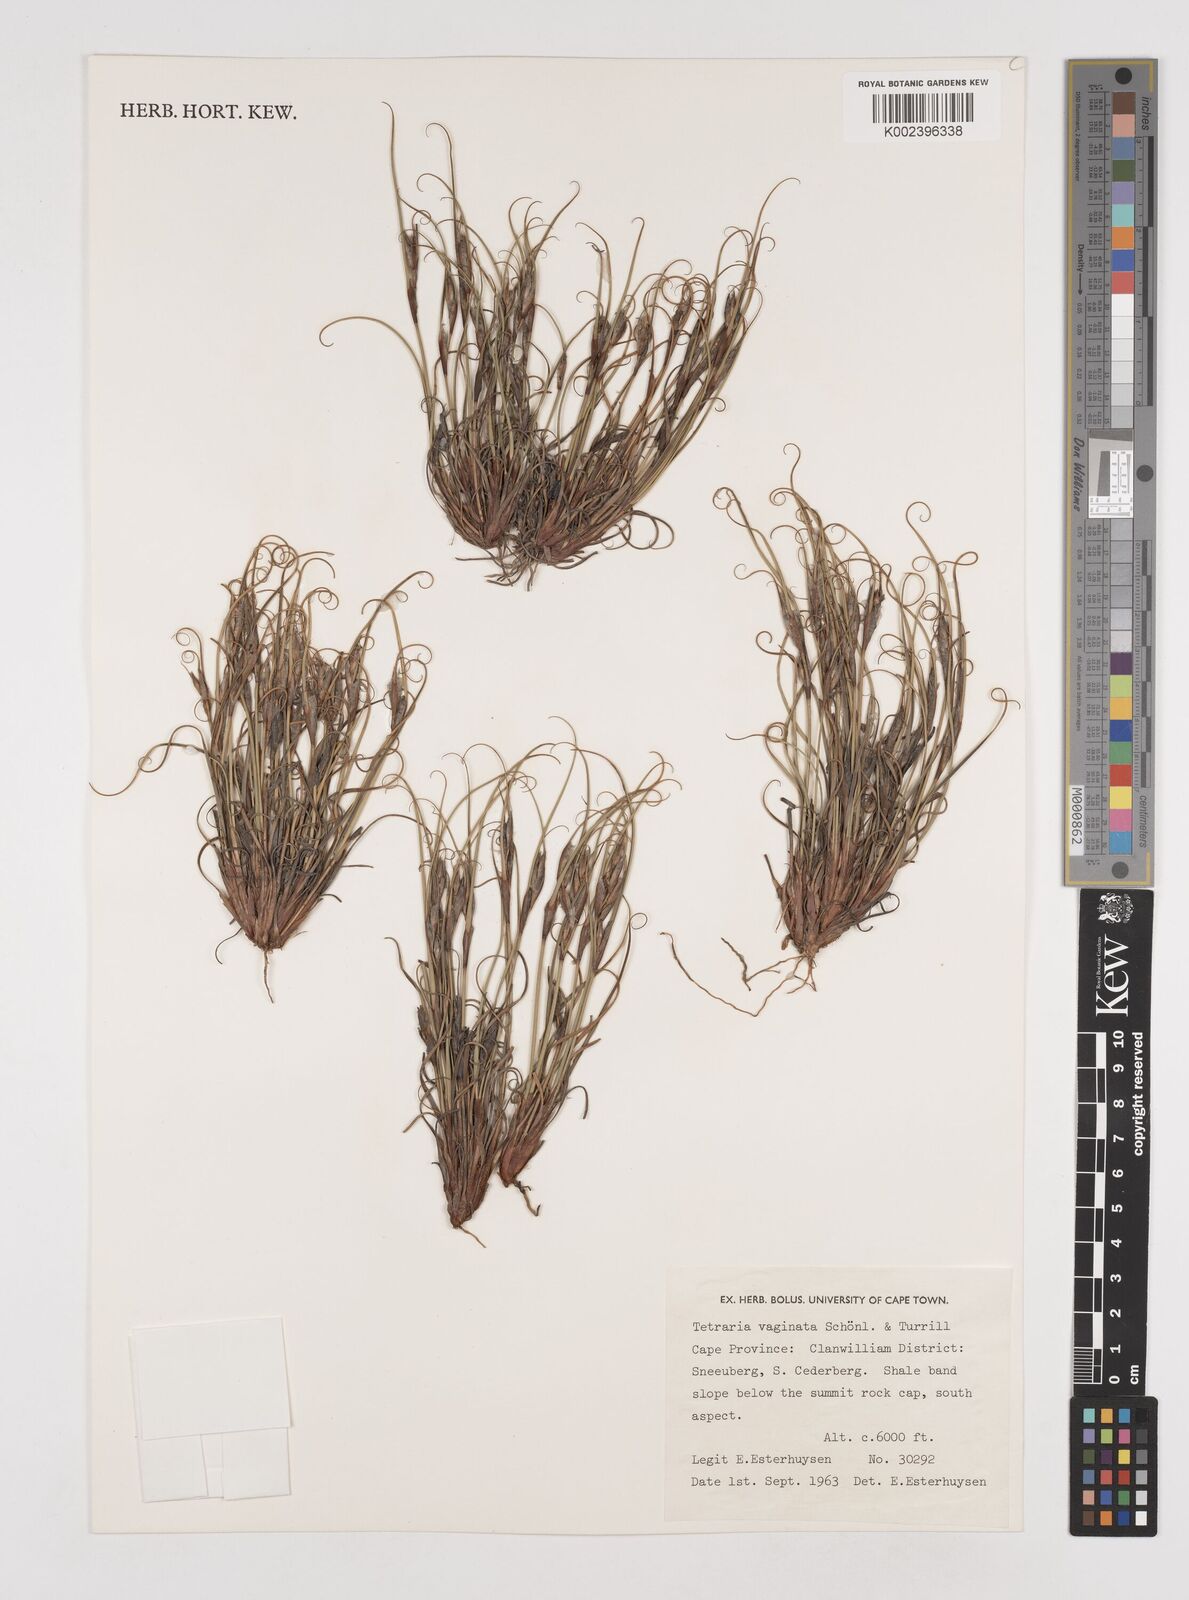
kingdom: Plantae
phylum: Tracheophyta
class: Liliopsida
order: Poales
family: Cyperaceae
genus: Tetraria
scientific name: Tetraria vaginata
